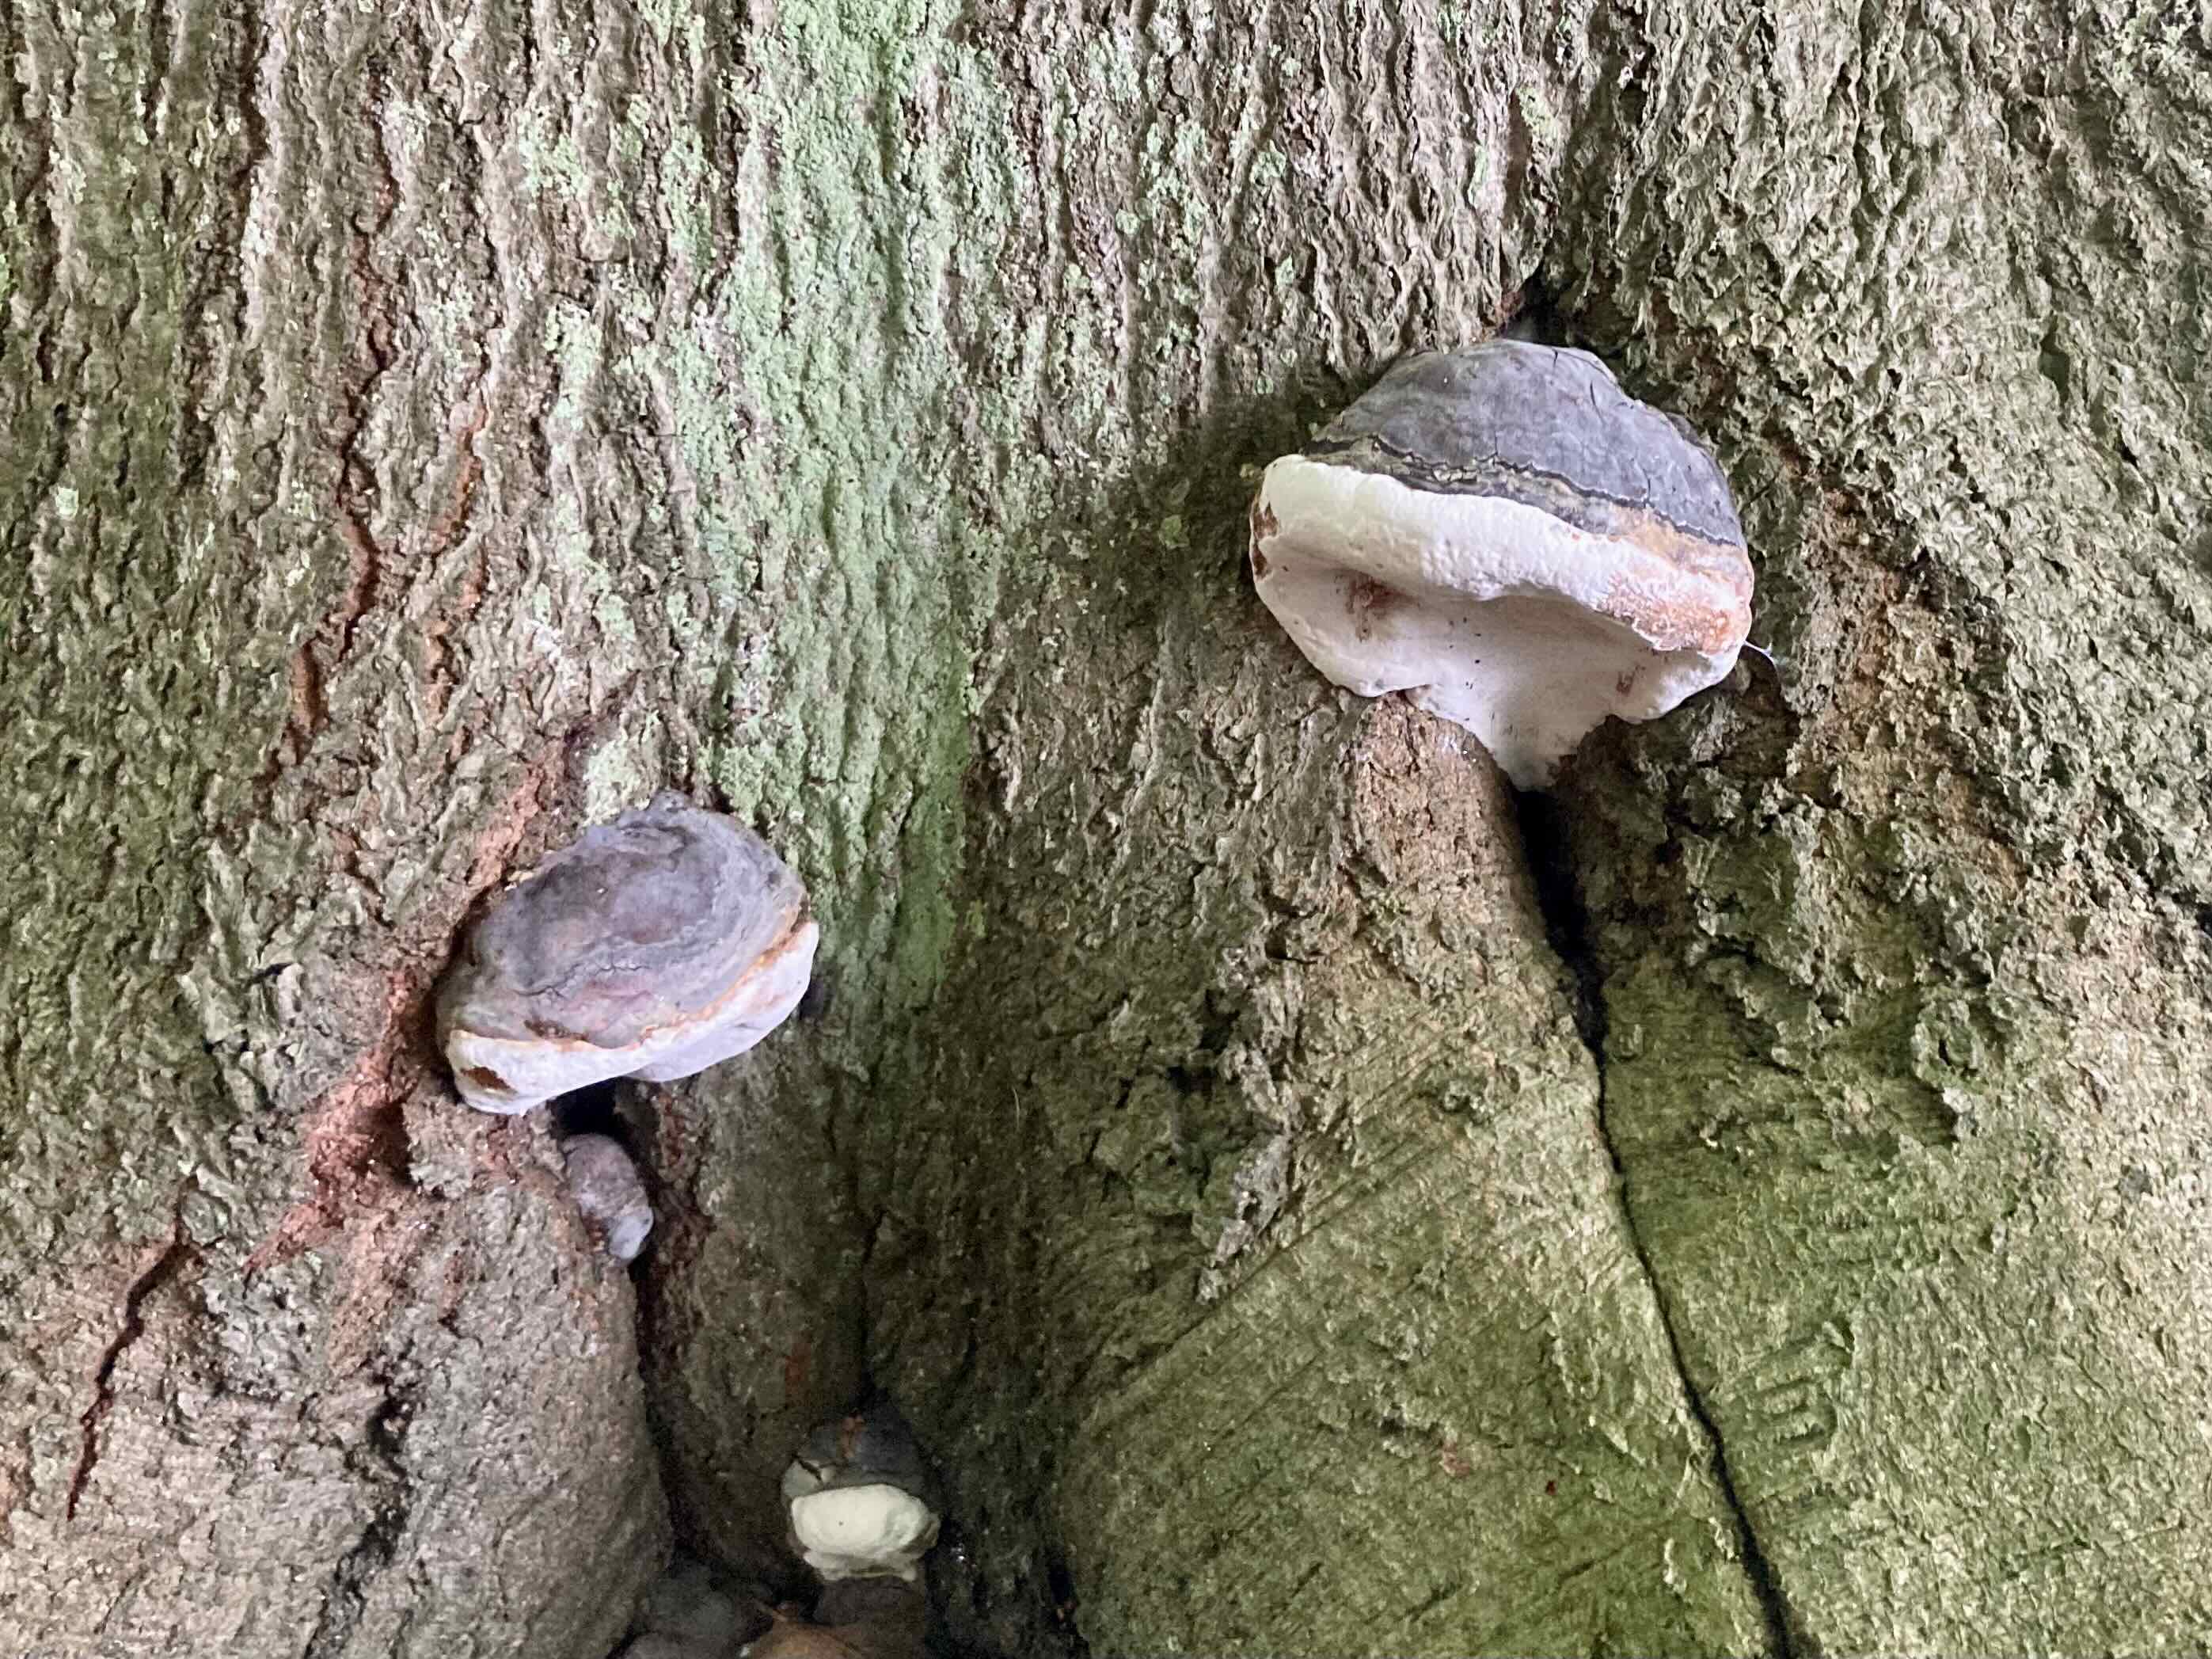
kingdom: Fungi
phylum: Basidiomycota
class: Agaricomycetes
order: Polyporales
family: Polyporaceae
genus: Ganoderma
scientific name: Ganoderma pfeifferi
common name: kobberrød lakporesvamp
